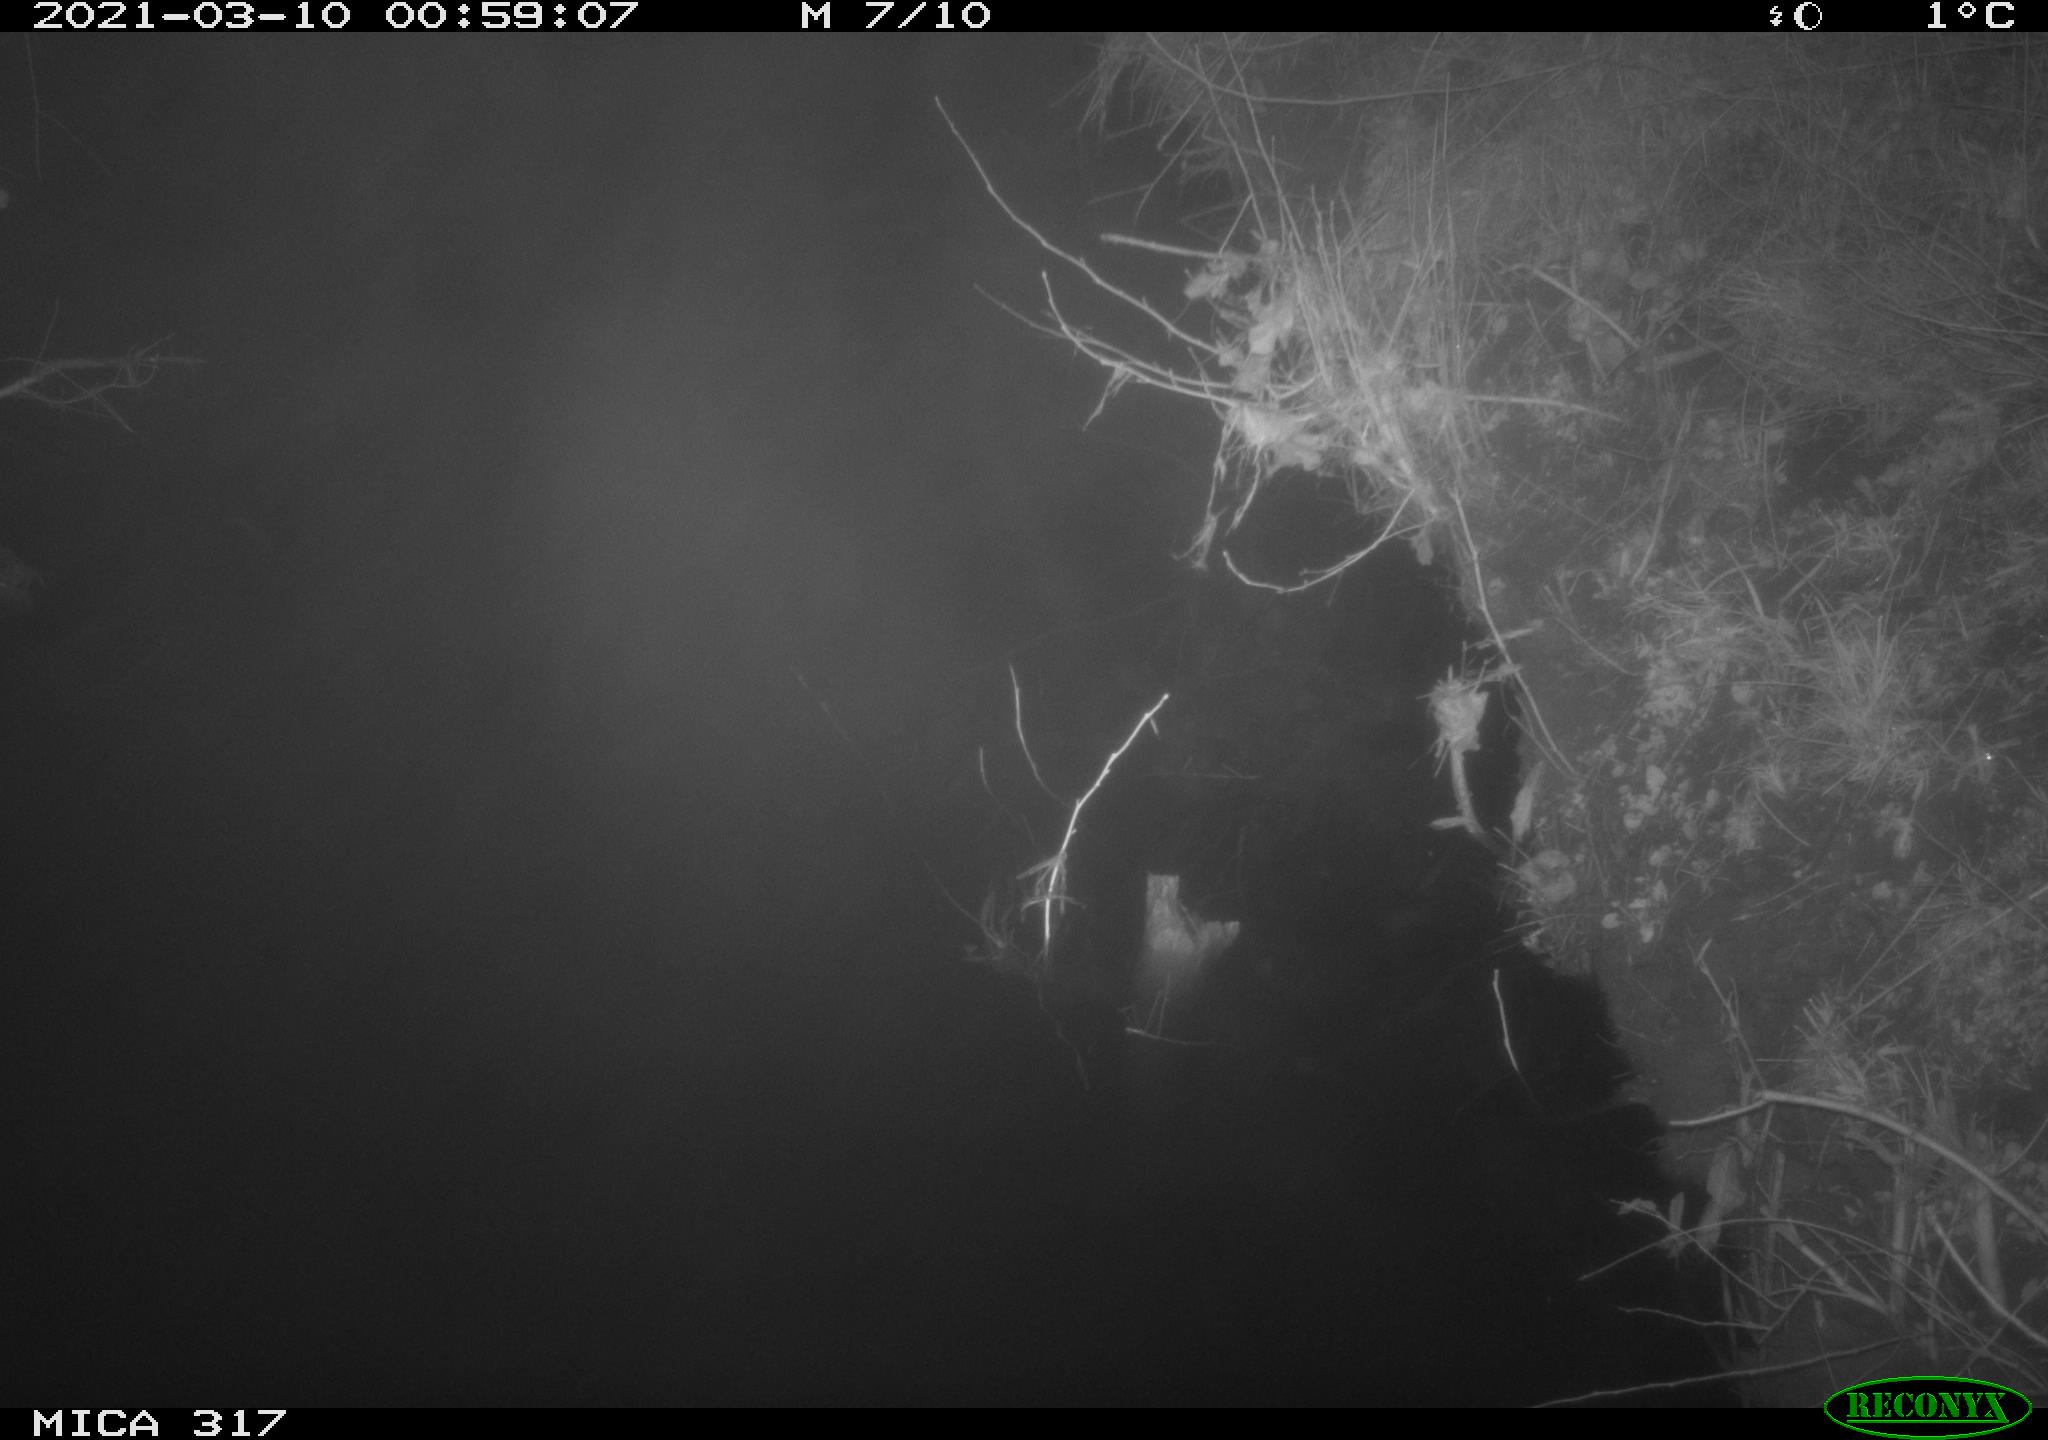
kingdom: Animalia
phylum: Chordata
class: Aves
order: Anseriformes
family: Anatidae
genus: Anas
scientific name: Anas platyrhynchos
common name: Mallard
